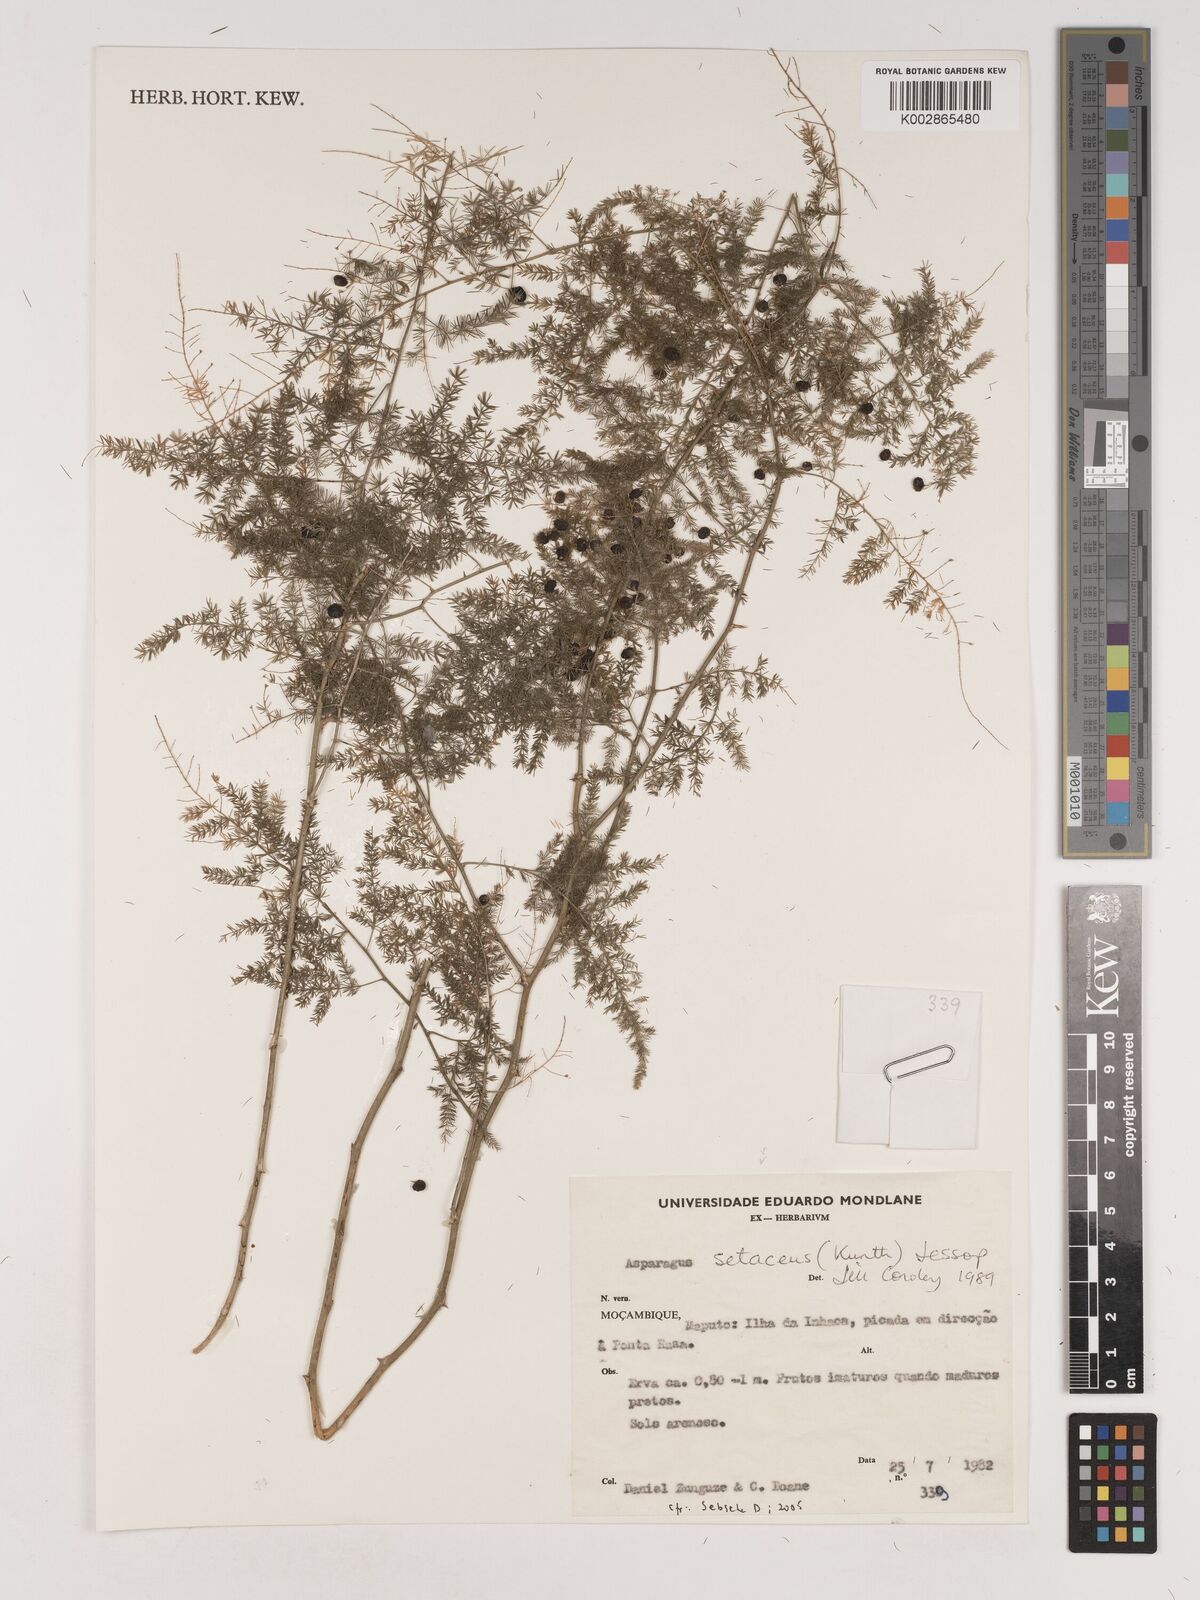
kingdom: Plantae
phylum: Tracheophyta
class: Liliopsida
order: Asparagales
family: Asparagaceae
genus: Asparagus
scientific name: Asparagus setaceus
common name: Common asparagus fern
